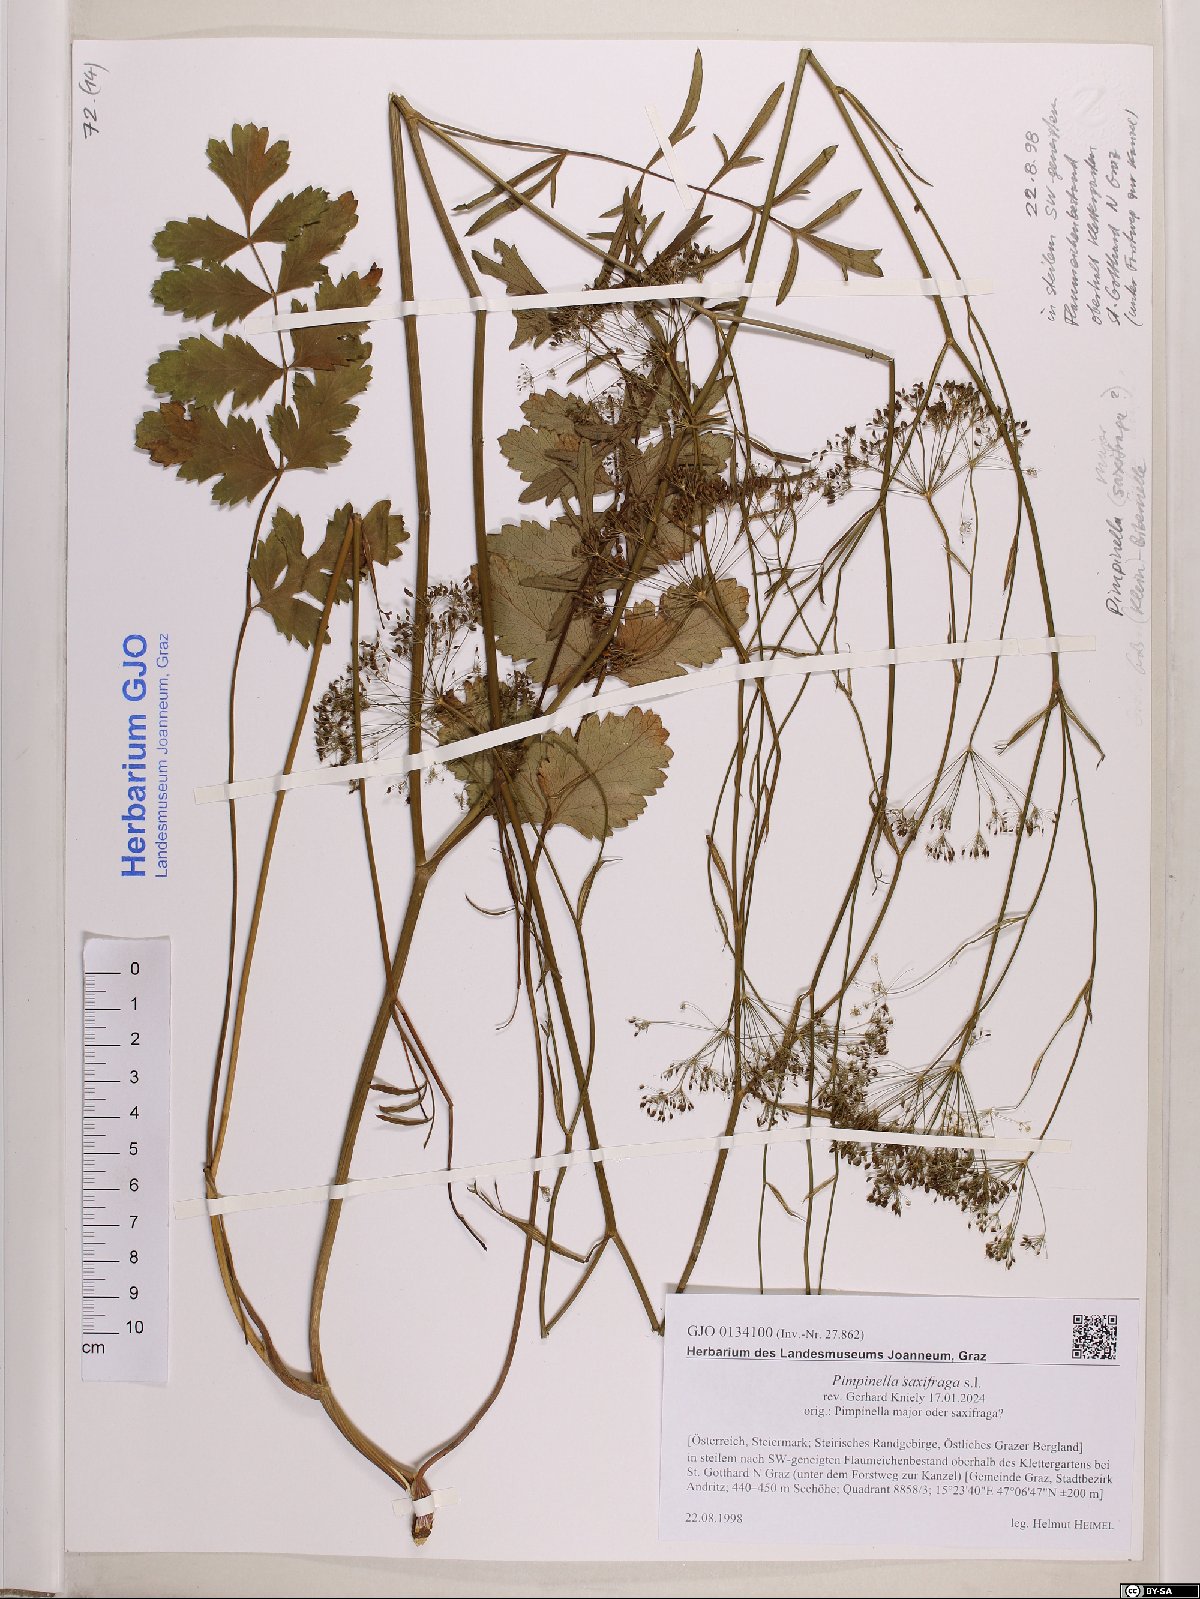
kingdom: Plantae
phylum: Tracheophyta
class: Magnoliopsida
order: Apiales
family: Apiaceae
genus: Pimpinella
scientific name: Pimpinella saxifraga
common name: Burnet-saxifrage
